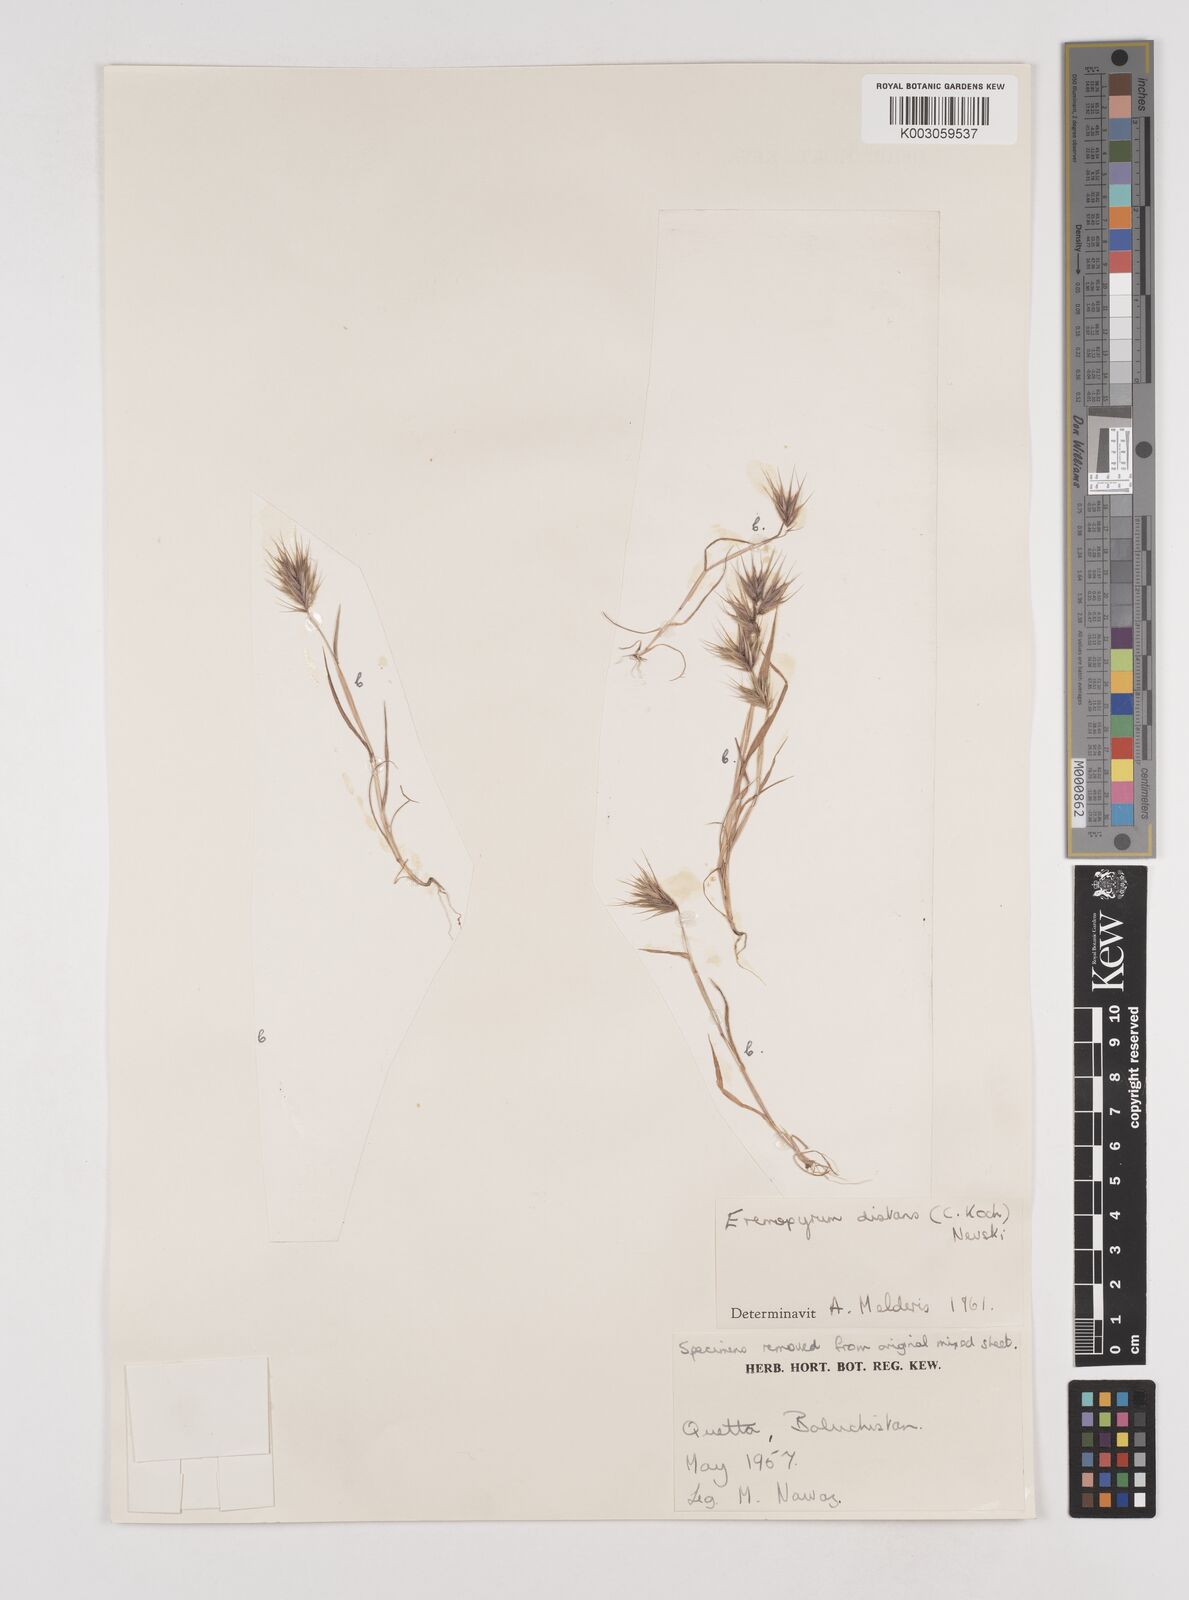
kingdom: Plantae
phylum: Tracheophyta
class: Liliopsida
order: Poales
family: Poaceae
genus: Eremopyrum
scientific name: Eremopyrum distans
